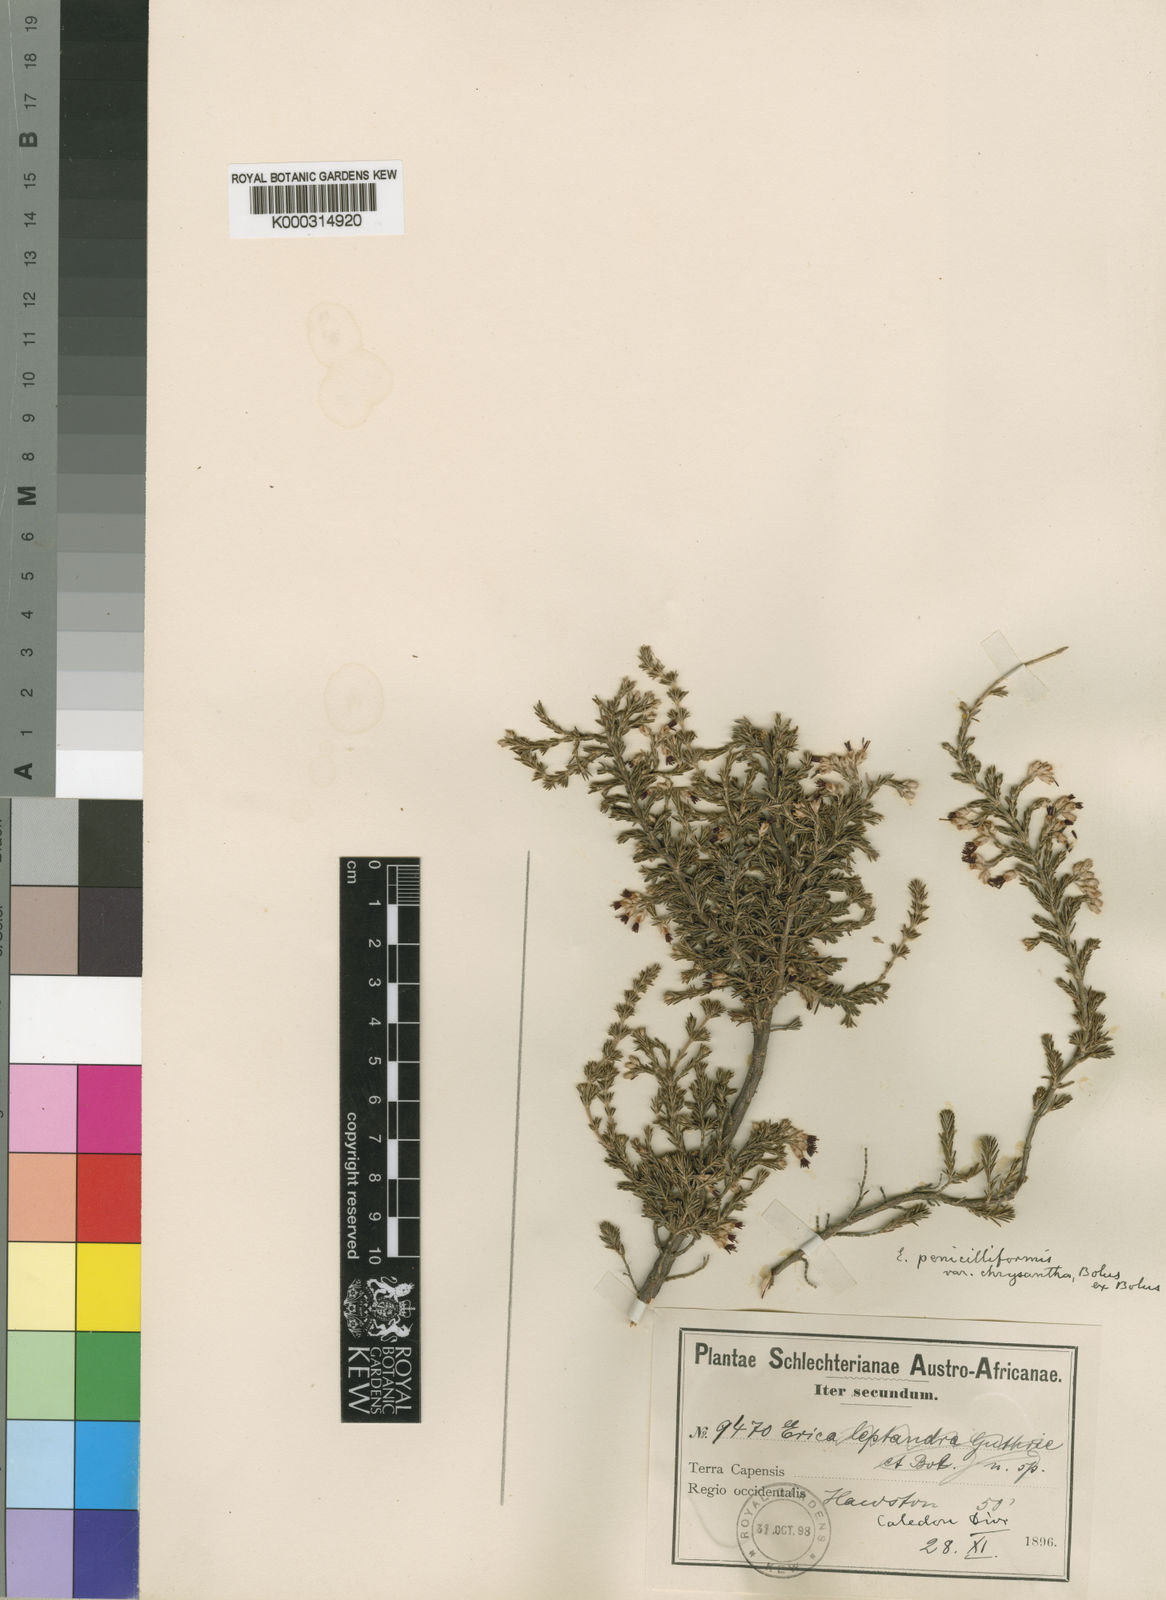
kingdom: Plantae
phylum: Tracheophyta
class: Magnoliopsida
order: Ericales
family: Ericaceae
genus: Erica
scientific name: Erica penicilliformis
